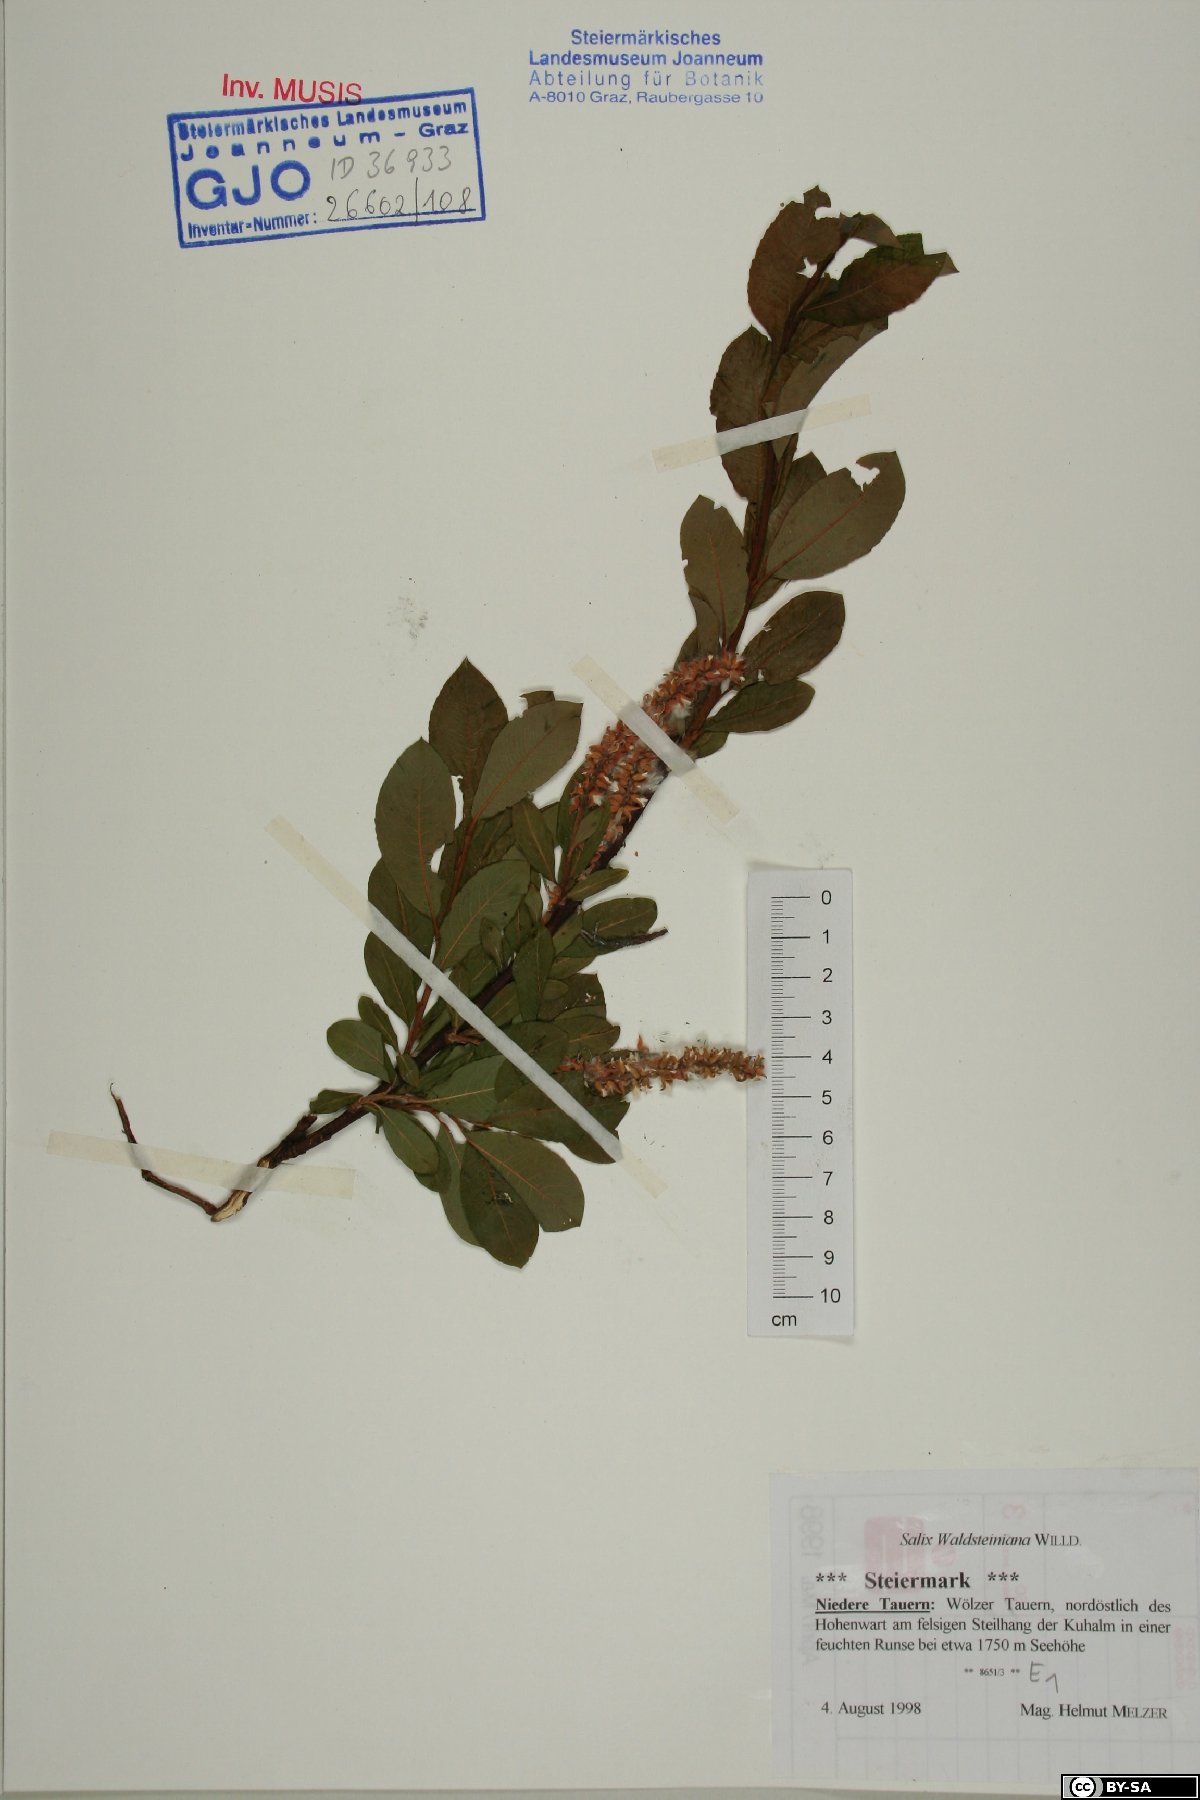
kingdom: Plantae
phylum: Tracheophyta
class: Magnoliopsida
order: Malpighiales
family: Salicaceae
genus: Salix
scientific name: Salix waldsteiniana
